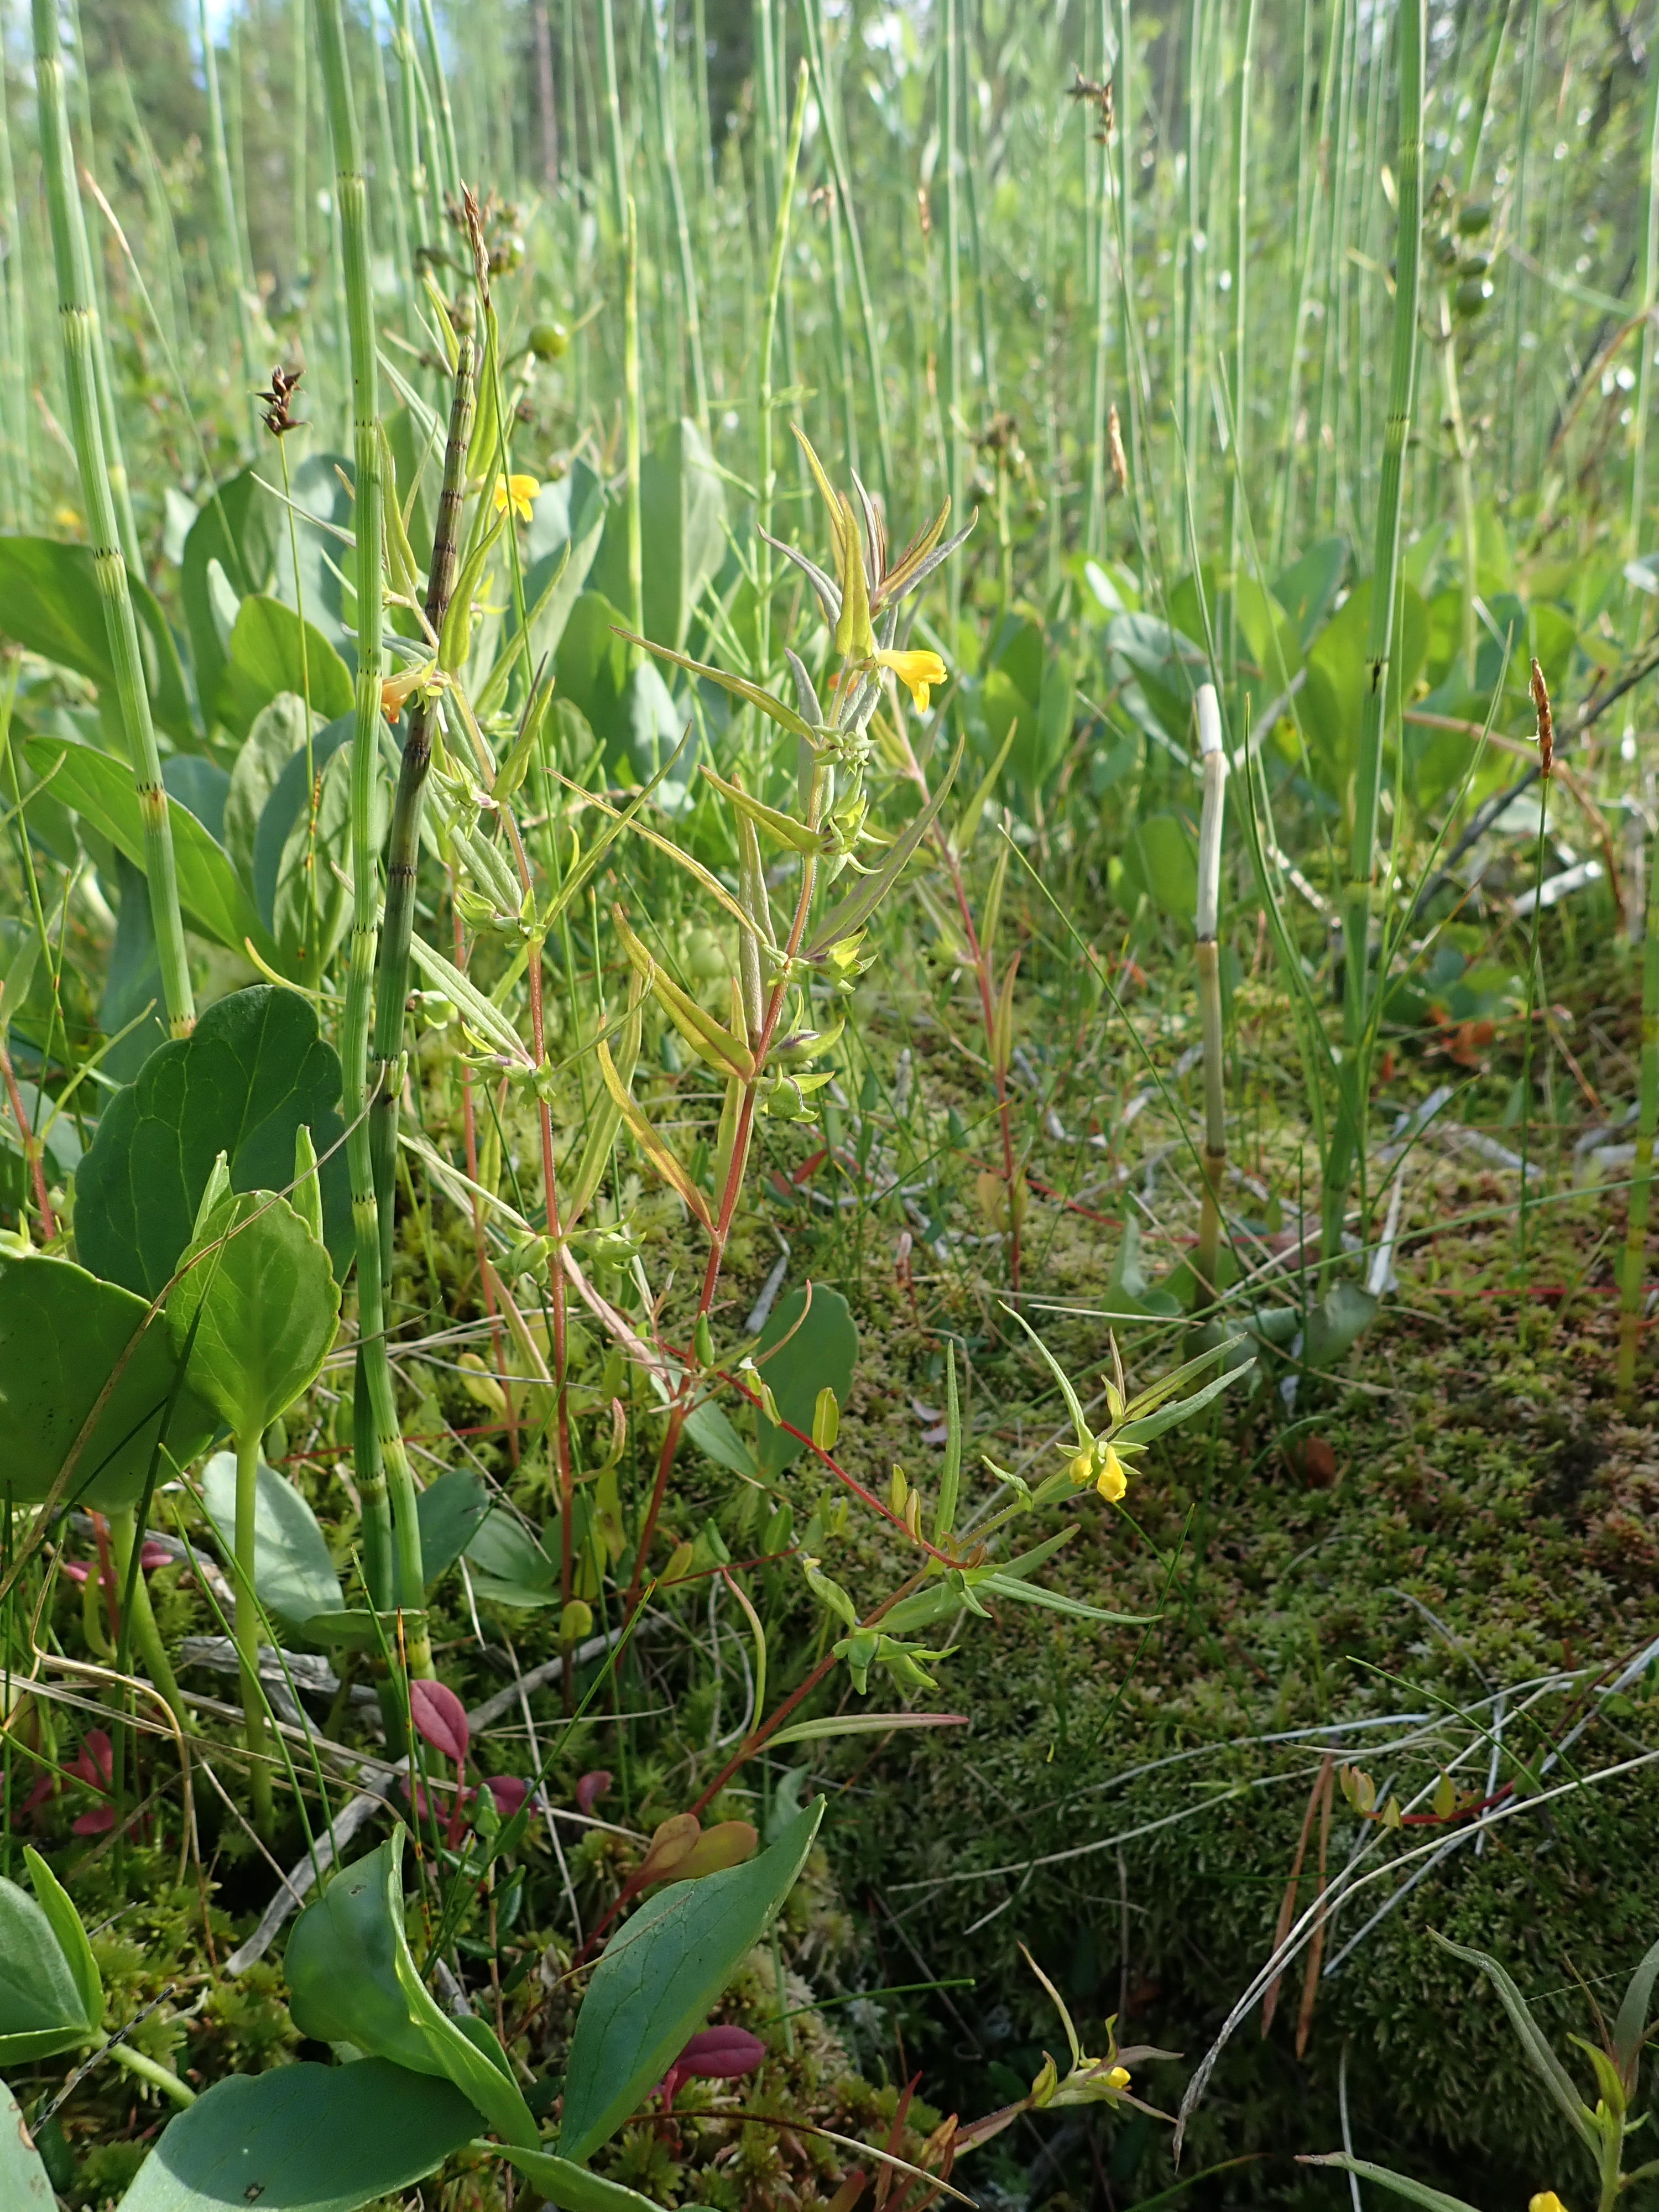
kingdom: Plantae
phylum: Tracheophyta
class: Magnoliopsida
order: Lamiales
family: Orobanchaceae
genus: Melampyrum
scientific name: Melampyrum sylvaticum
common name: Small cow-wheat
